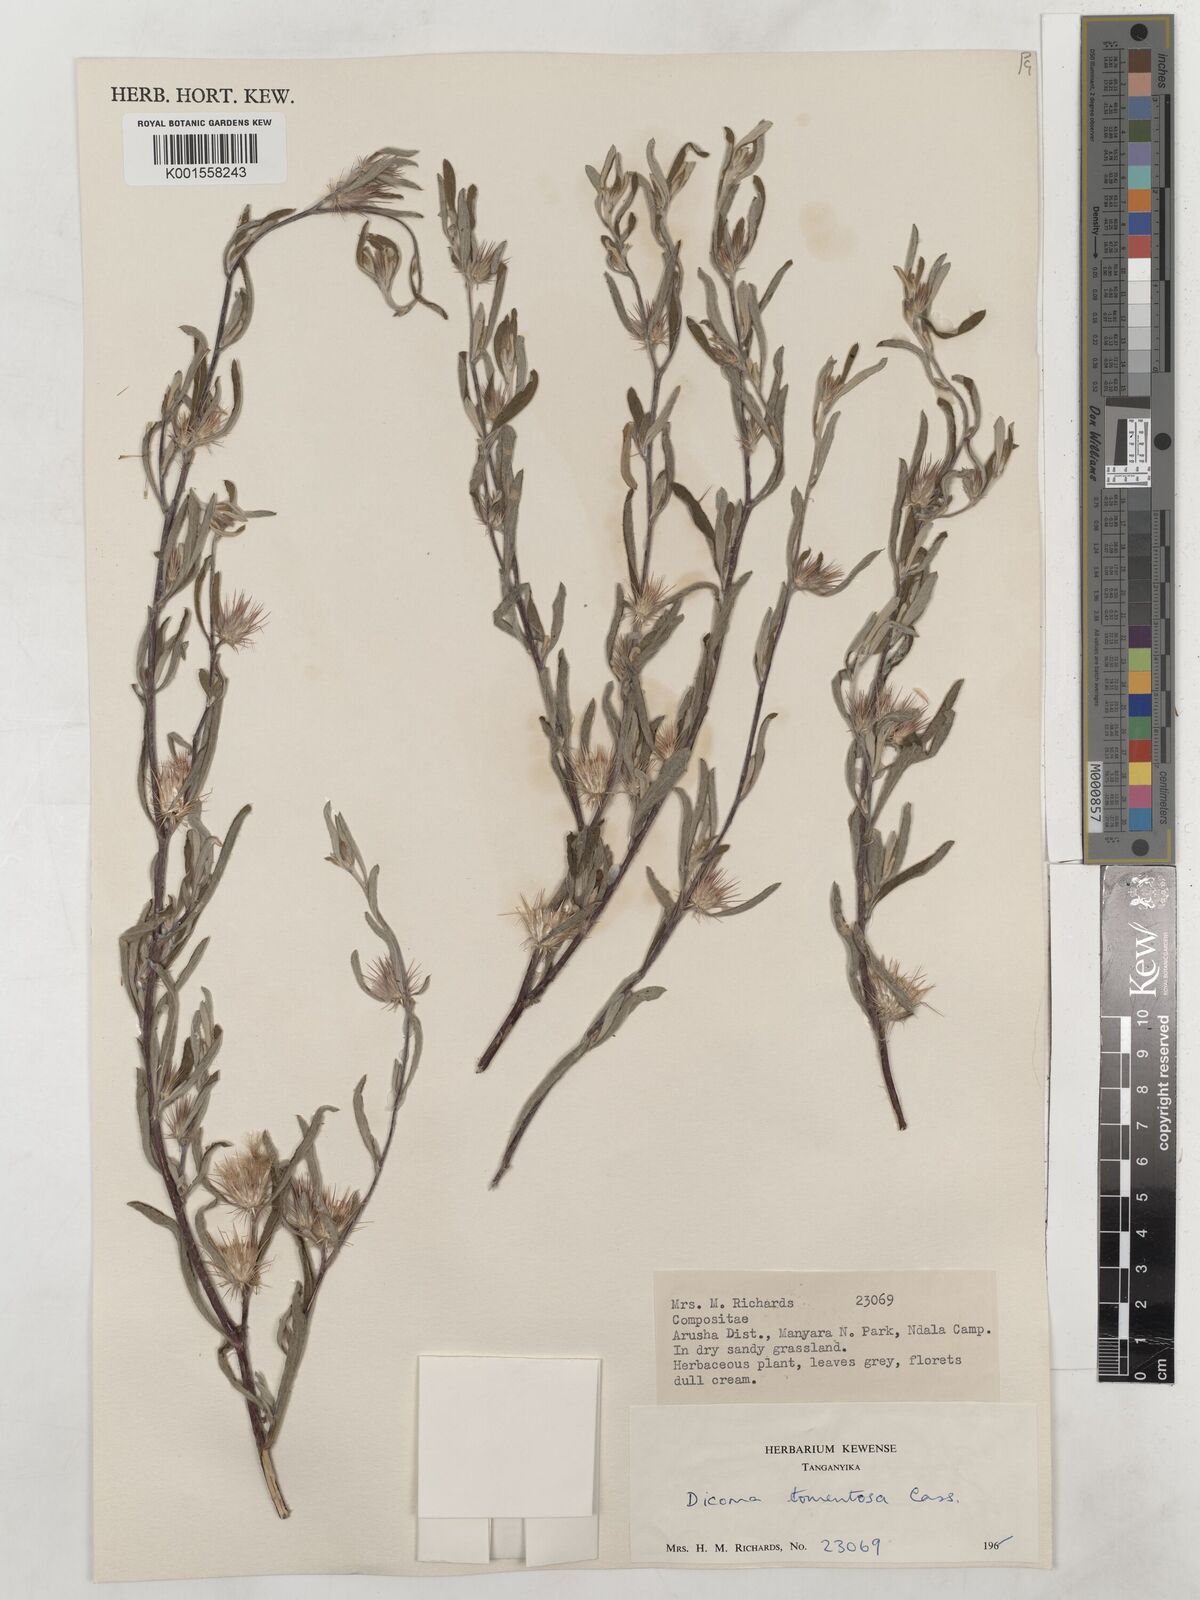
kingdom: Plantae
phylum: Tracheophyta
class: Magnoliopsida
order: Asterales
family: Asteraceae
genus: Dicoma
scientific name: Dicoma tomentosa
